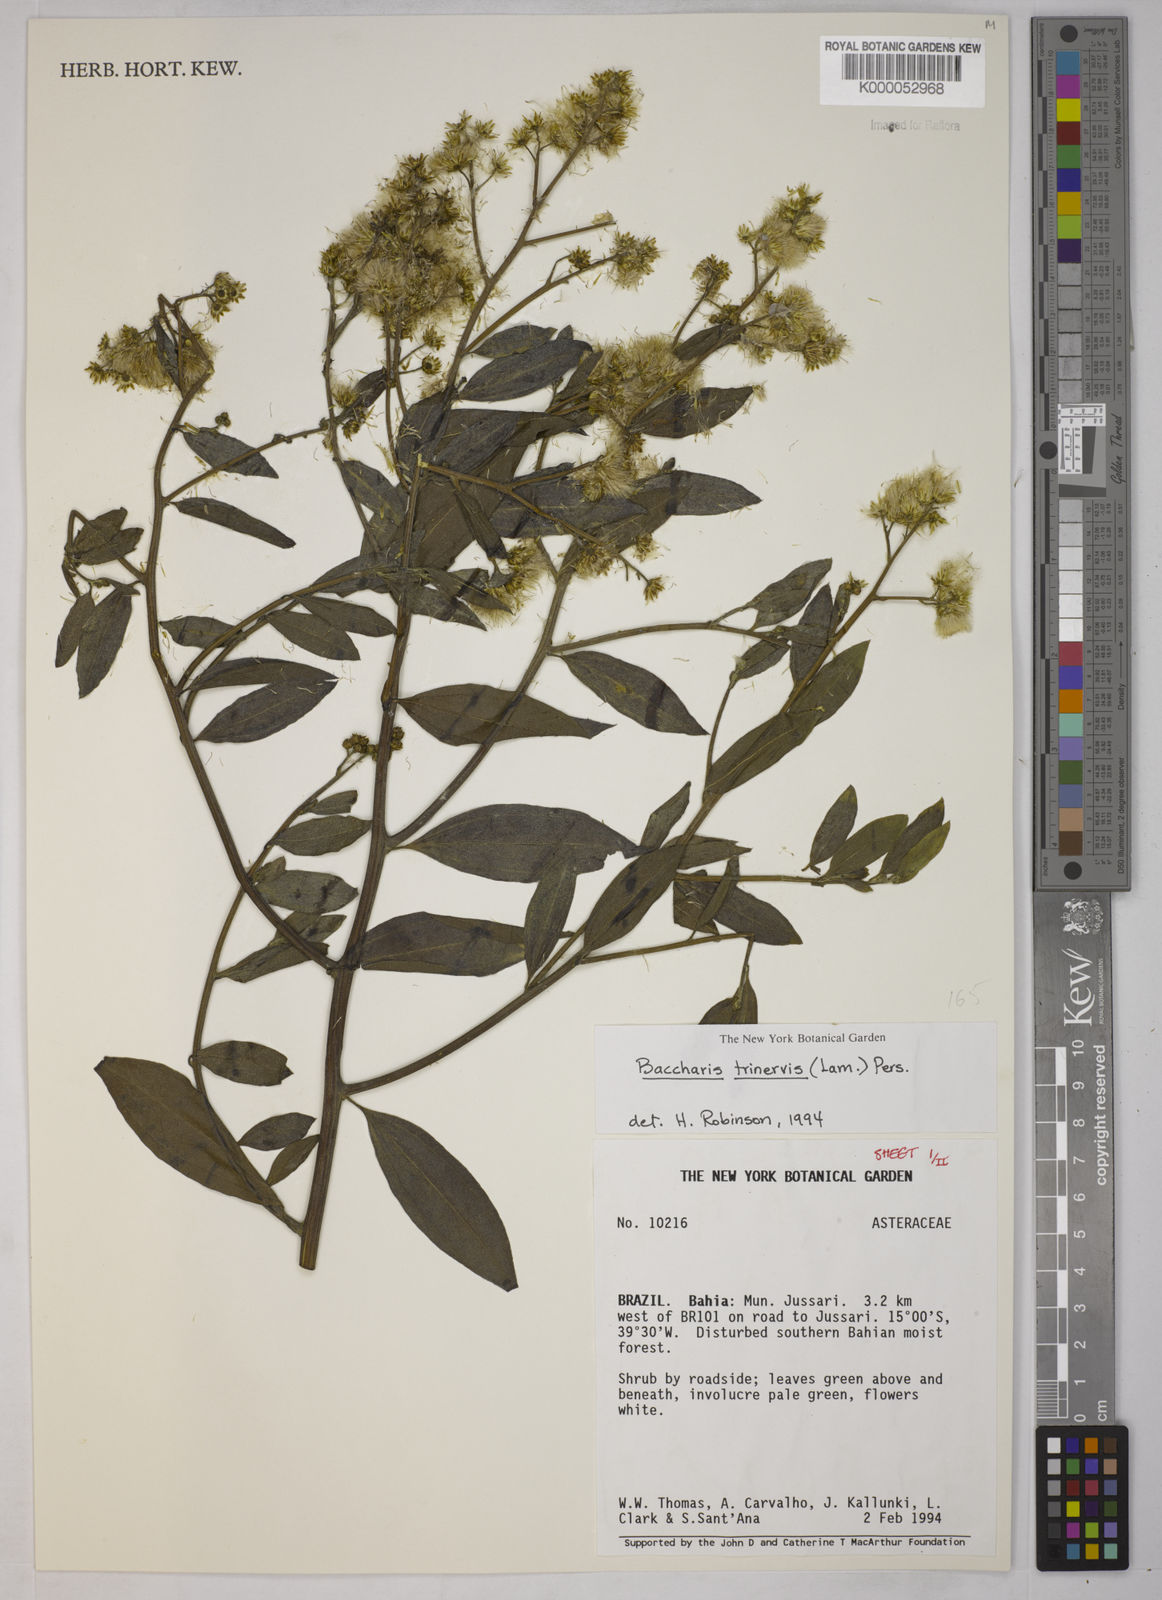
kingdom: Plantae
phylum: Tracheophyta
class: Magnoliopsida
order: Asterales
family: Asteraceae
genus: Baccharis
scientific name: Baccharis trinervis
